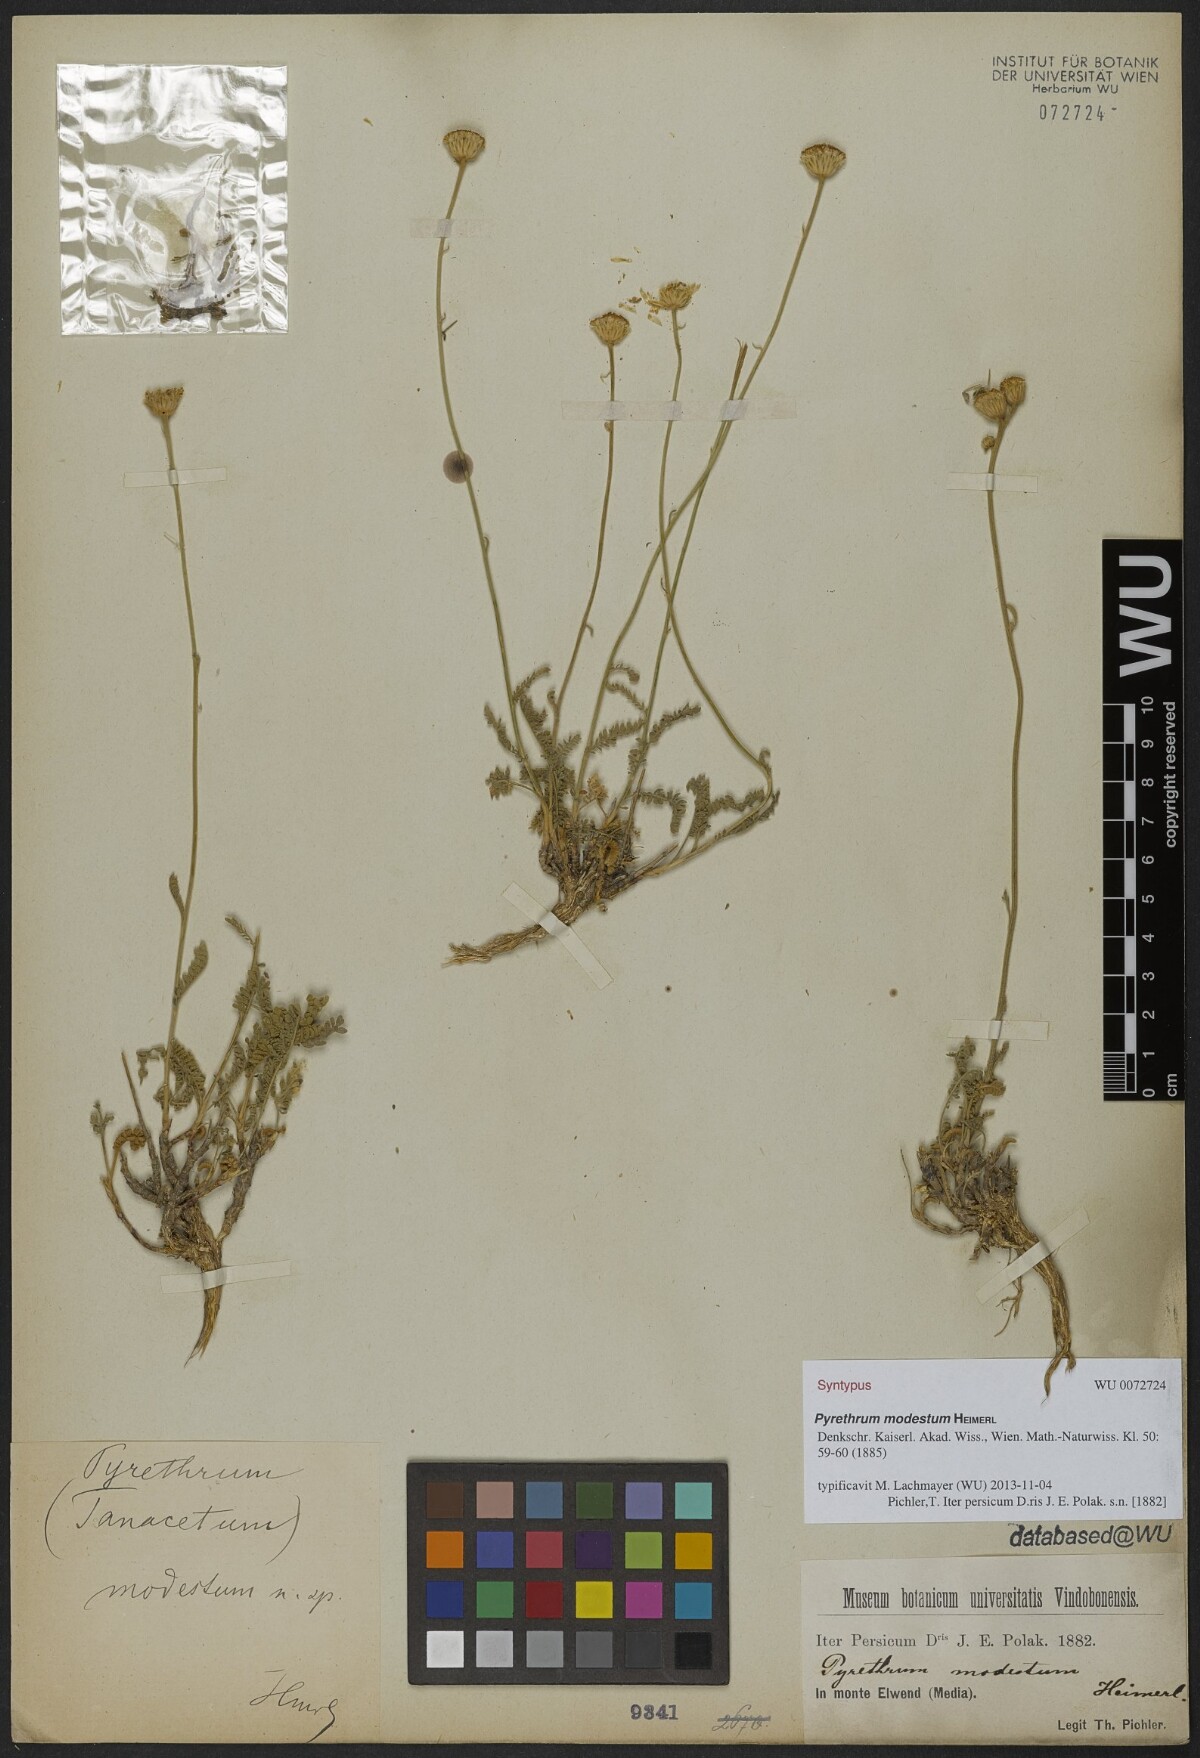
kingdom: Plantae
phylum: Tracheophyta
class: Magnoliopsida
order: Asterales
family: Asteraceae
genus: Tanacetum
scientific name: Tanacetum canescens
